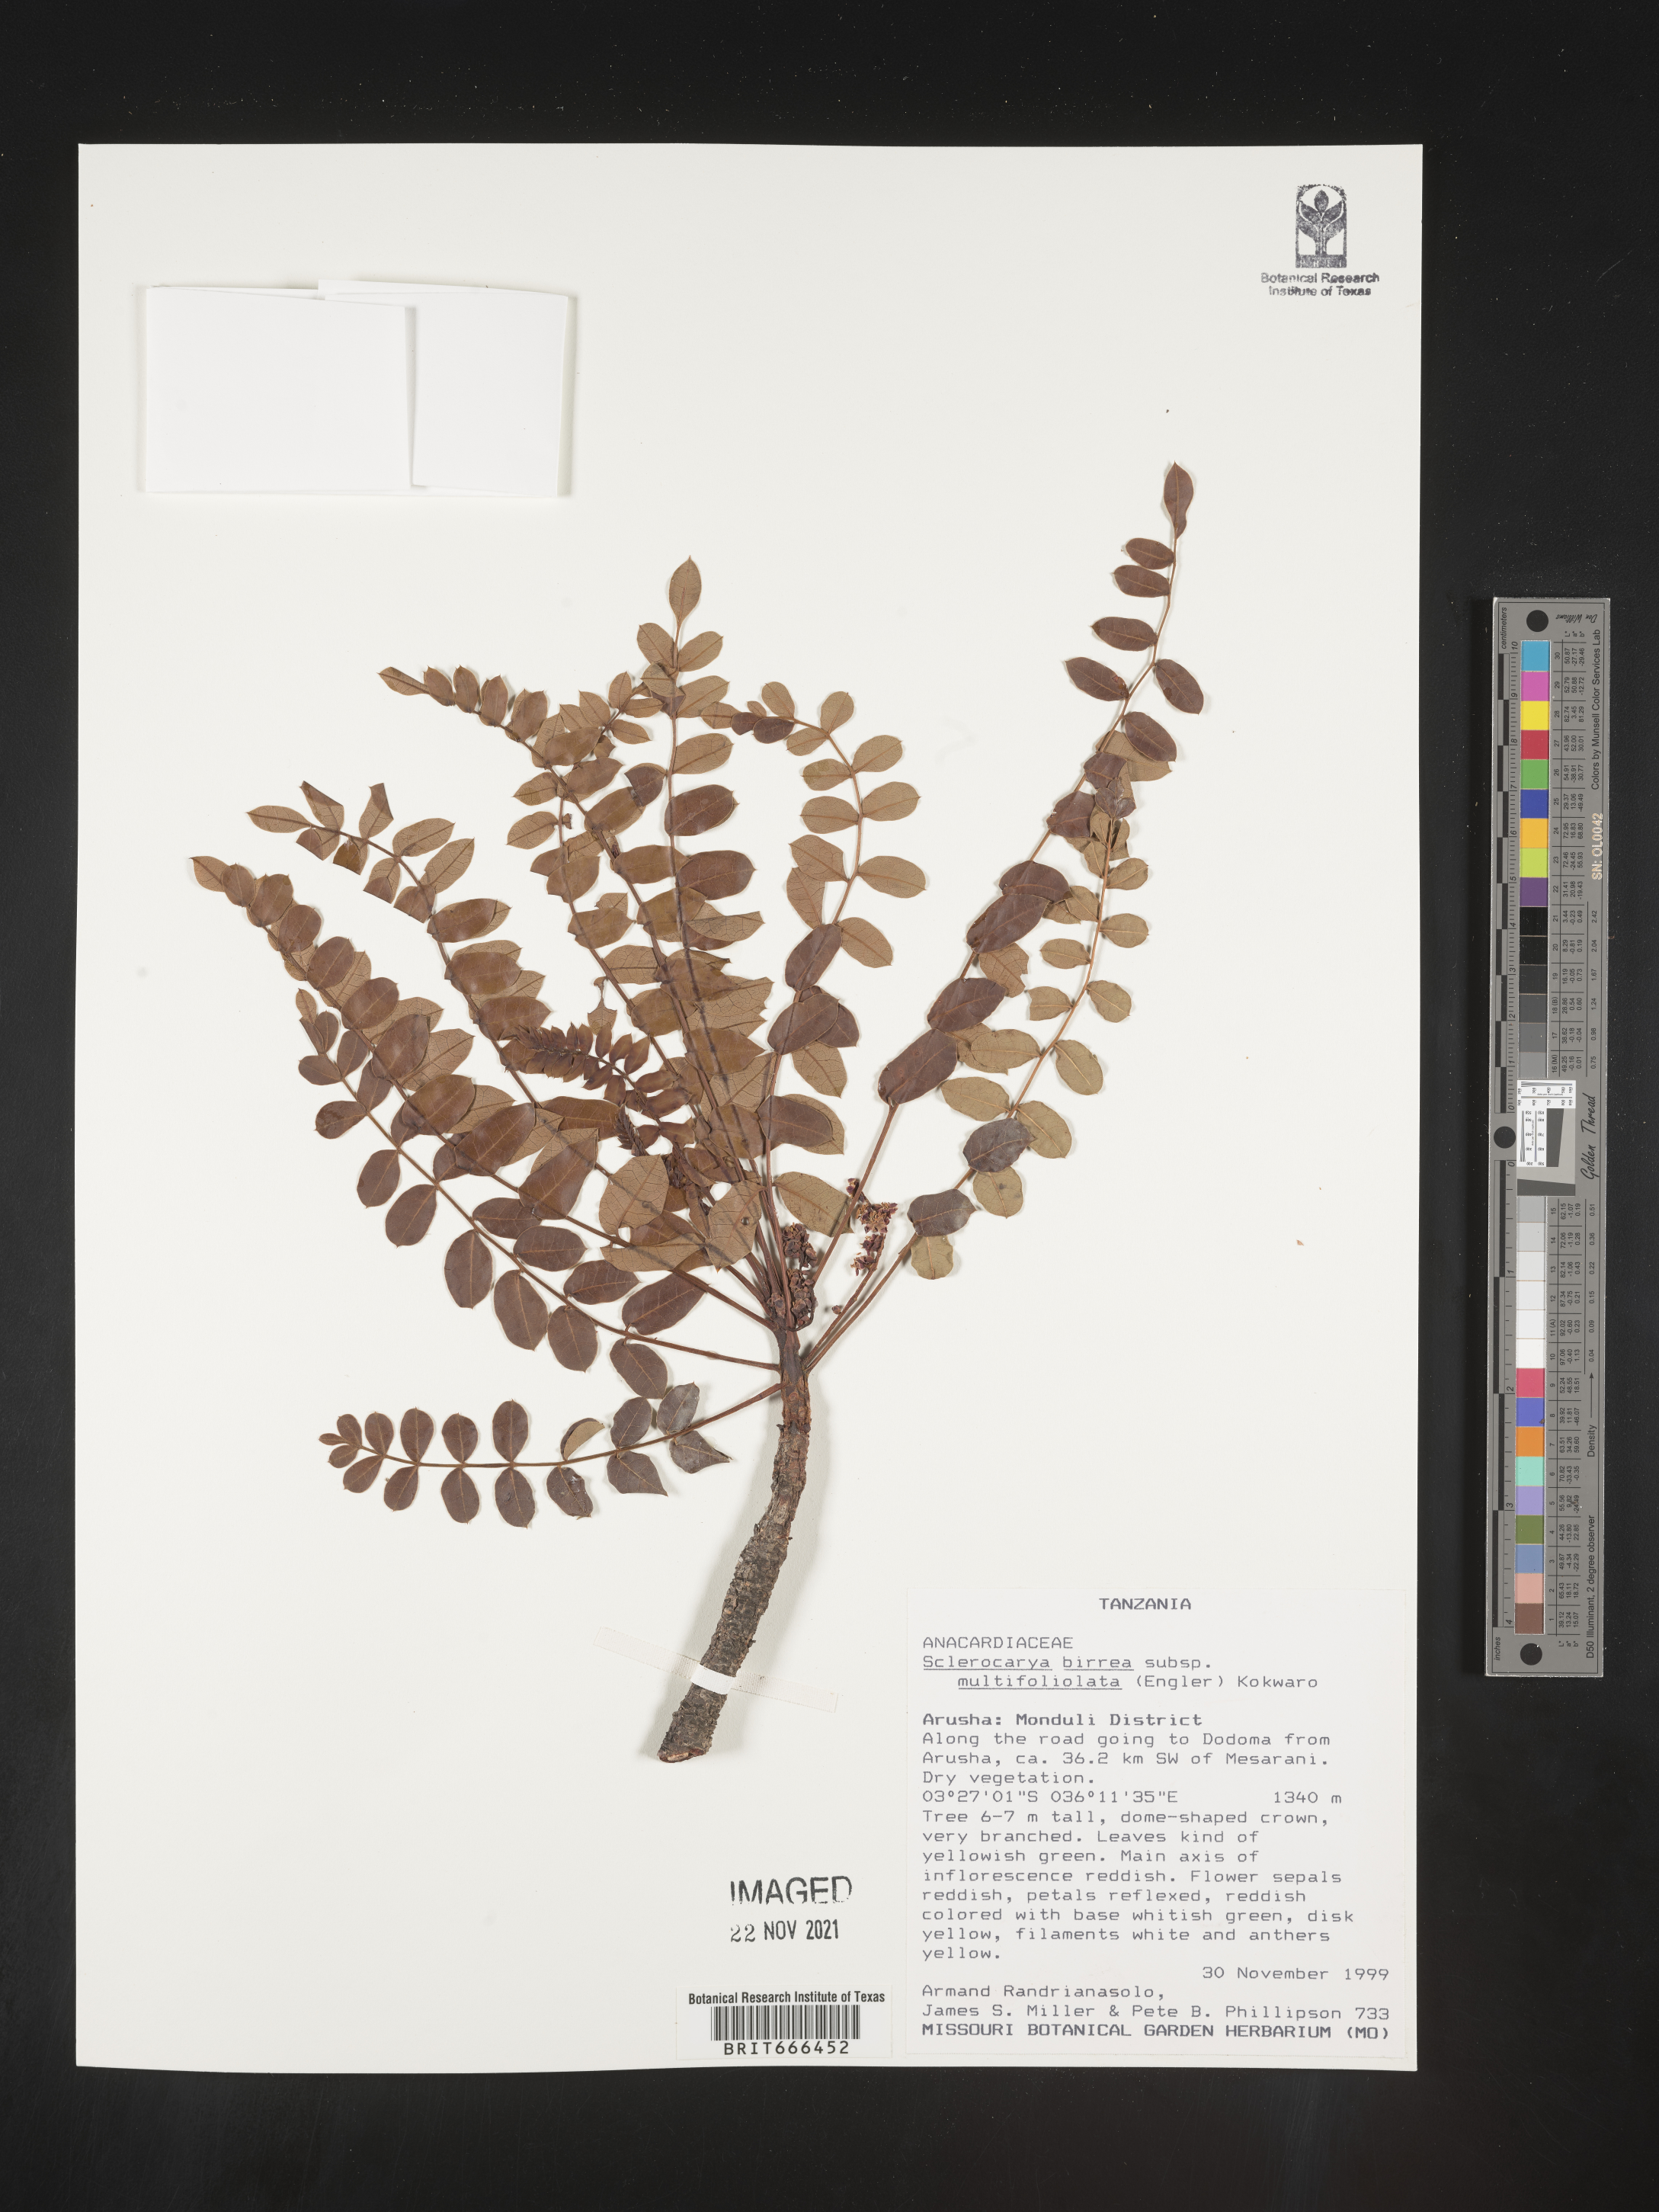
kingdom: Plantae
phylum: Tracheophyta
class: Magnoliopsida
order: Sapindales
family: Anacardiaceae
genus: Sclerocarya
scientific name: Sclerocarya birrea
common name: Marula
